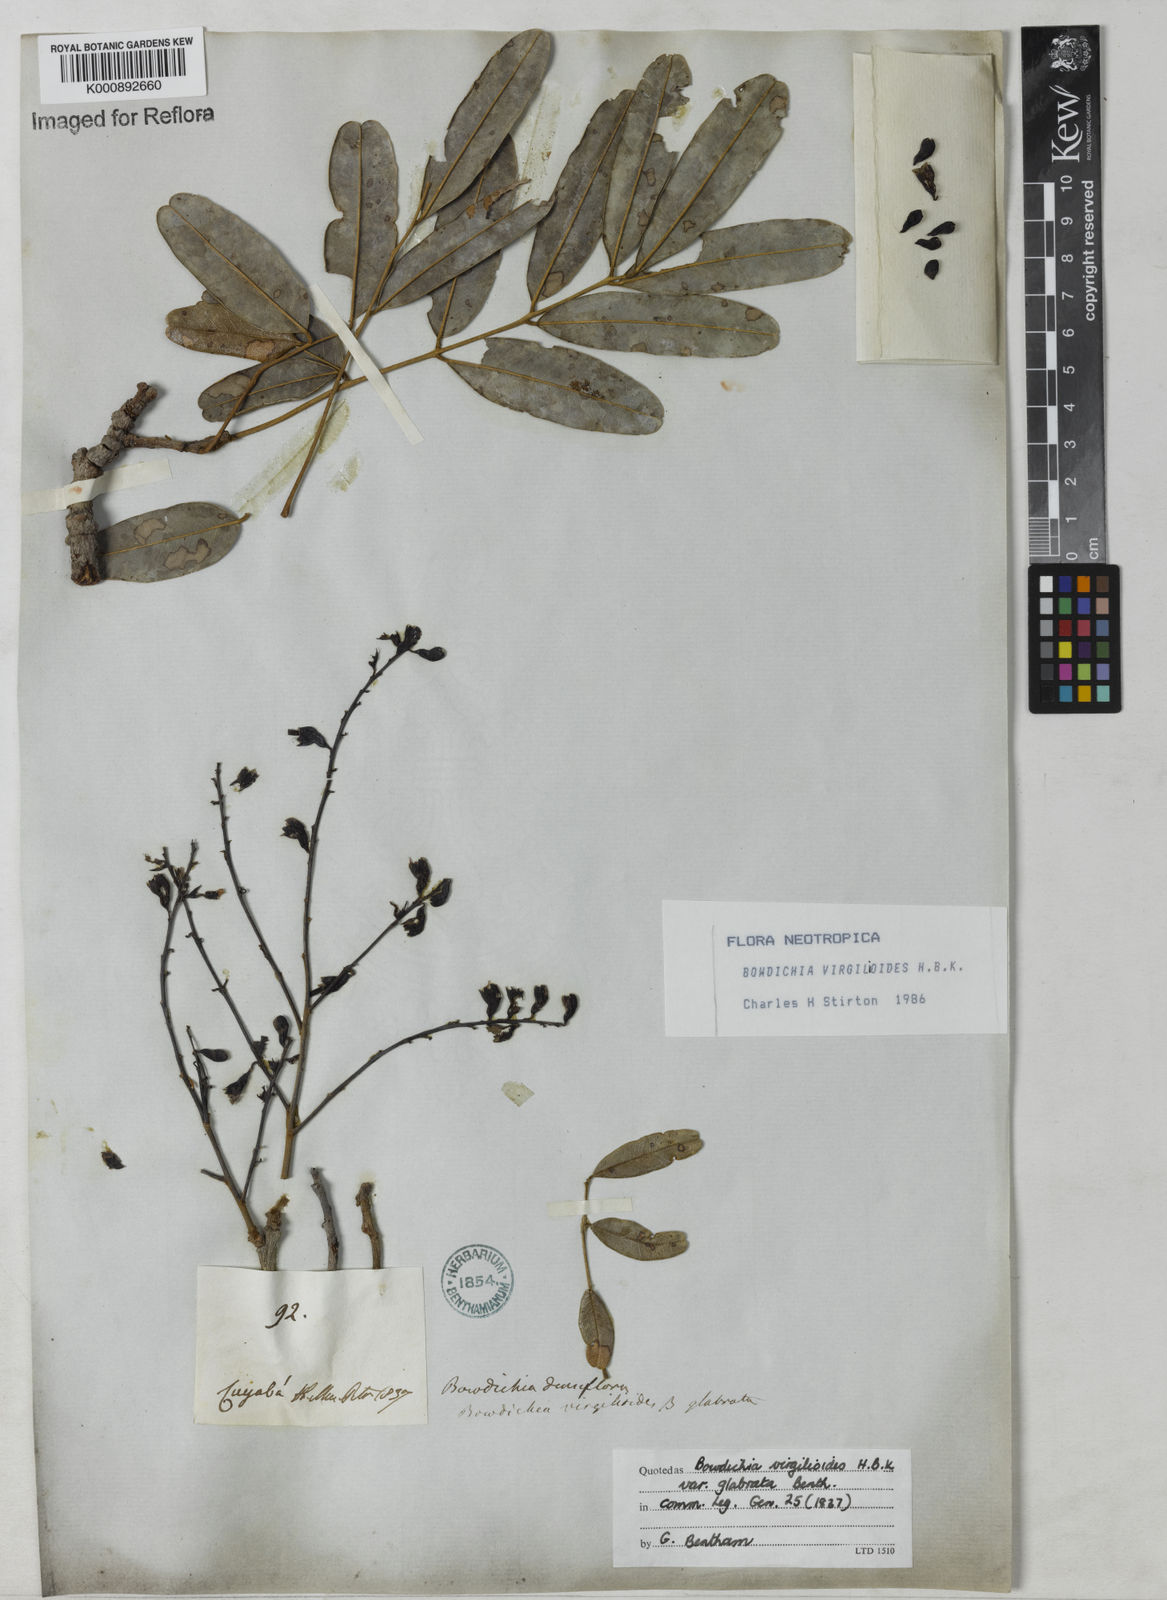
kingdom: Plantae
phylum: Tracheophyta
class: Magnoliopsida
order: Fabales
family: Fabaceae
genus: Bowdichia
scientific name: Bowdichia virgilioides
